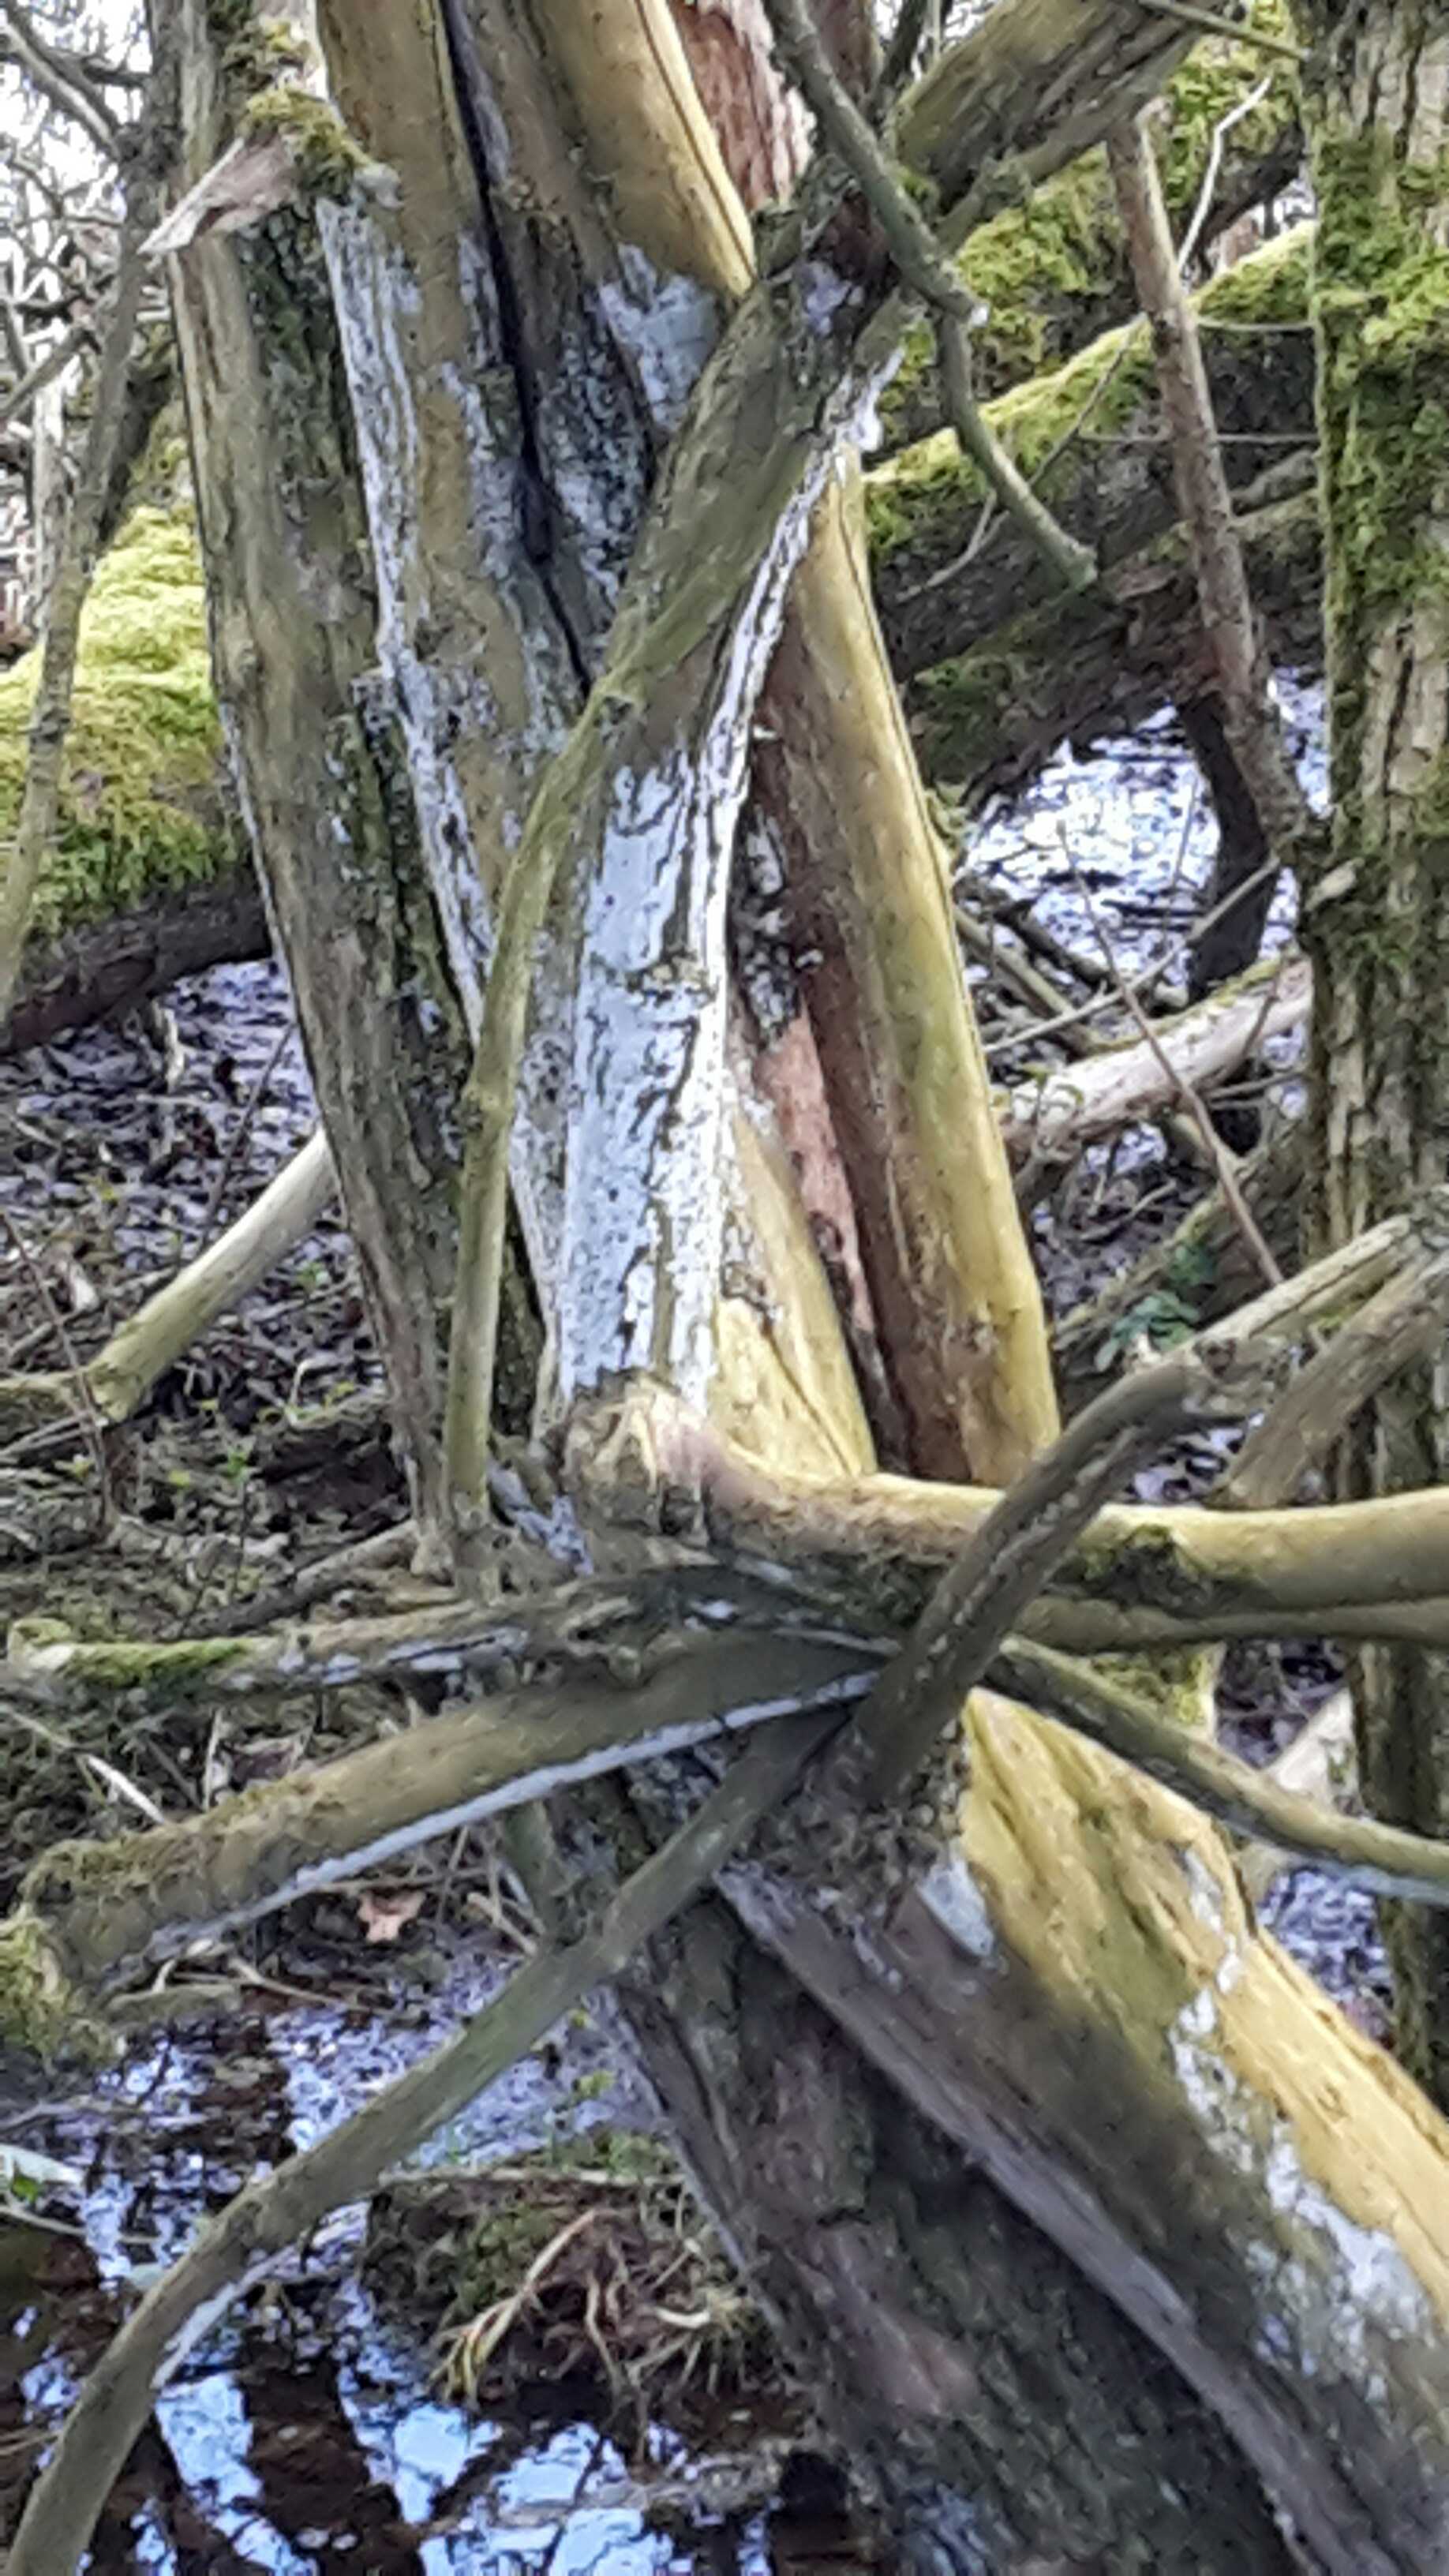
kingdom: Fungi
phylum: Basidiomycota
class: Agaricomycetes
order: Corticiales
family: Corticiaceae
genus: Lyomyces
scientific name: Lyomyces sambuci
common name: almindelig hyldehinde
